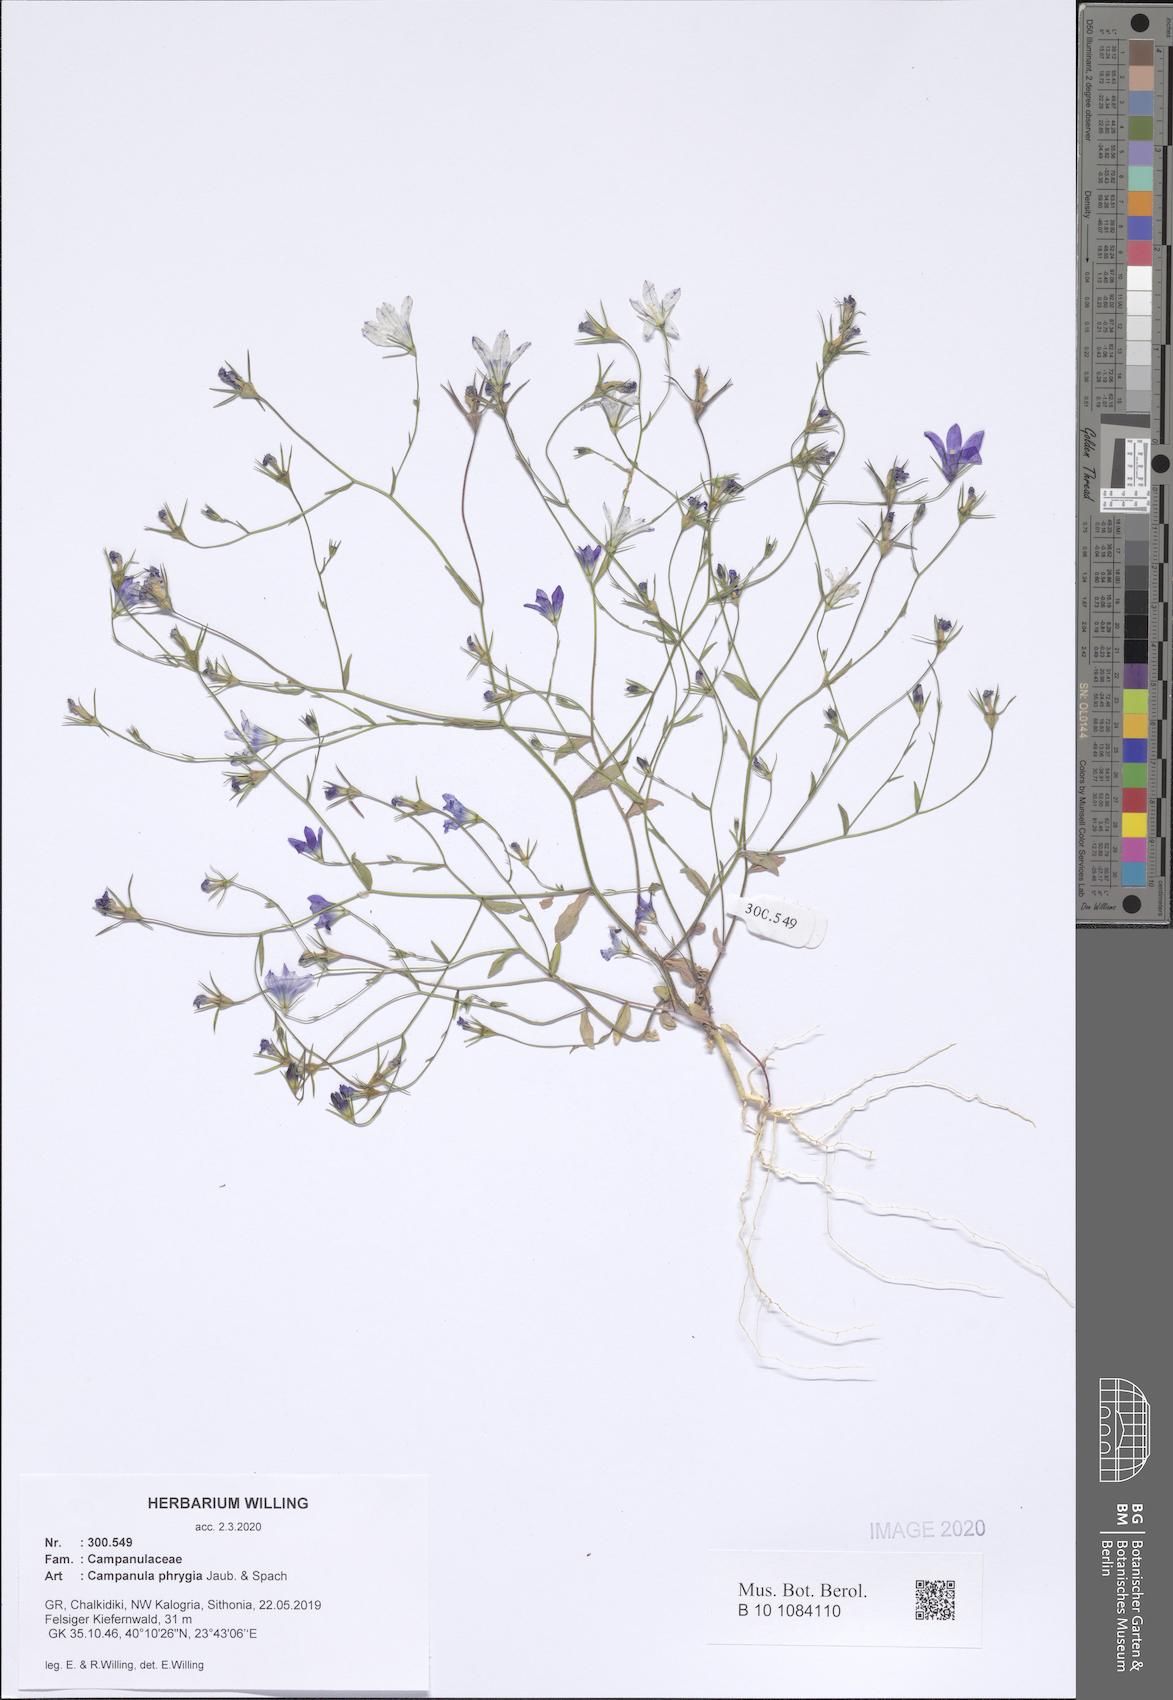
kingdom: Plantae
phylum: Tracheophyta
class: Magnoliopsida
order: Asterales
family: Campanulaceae
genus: Campanula
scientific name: Campanula phrygia
